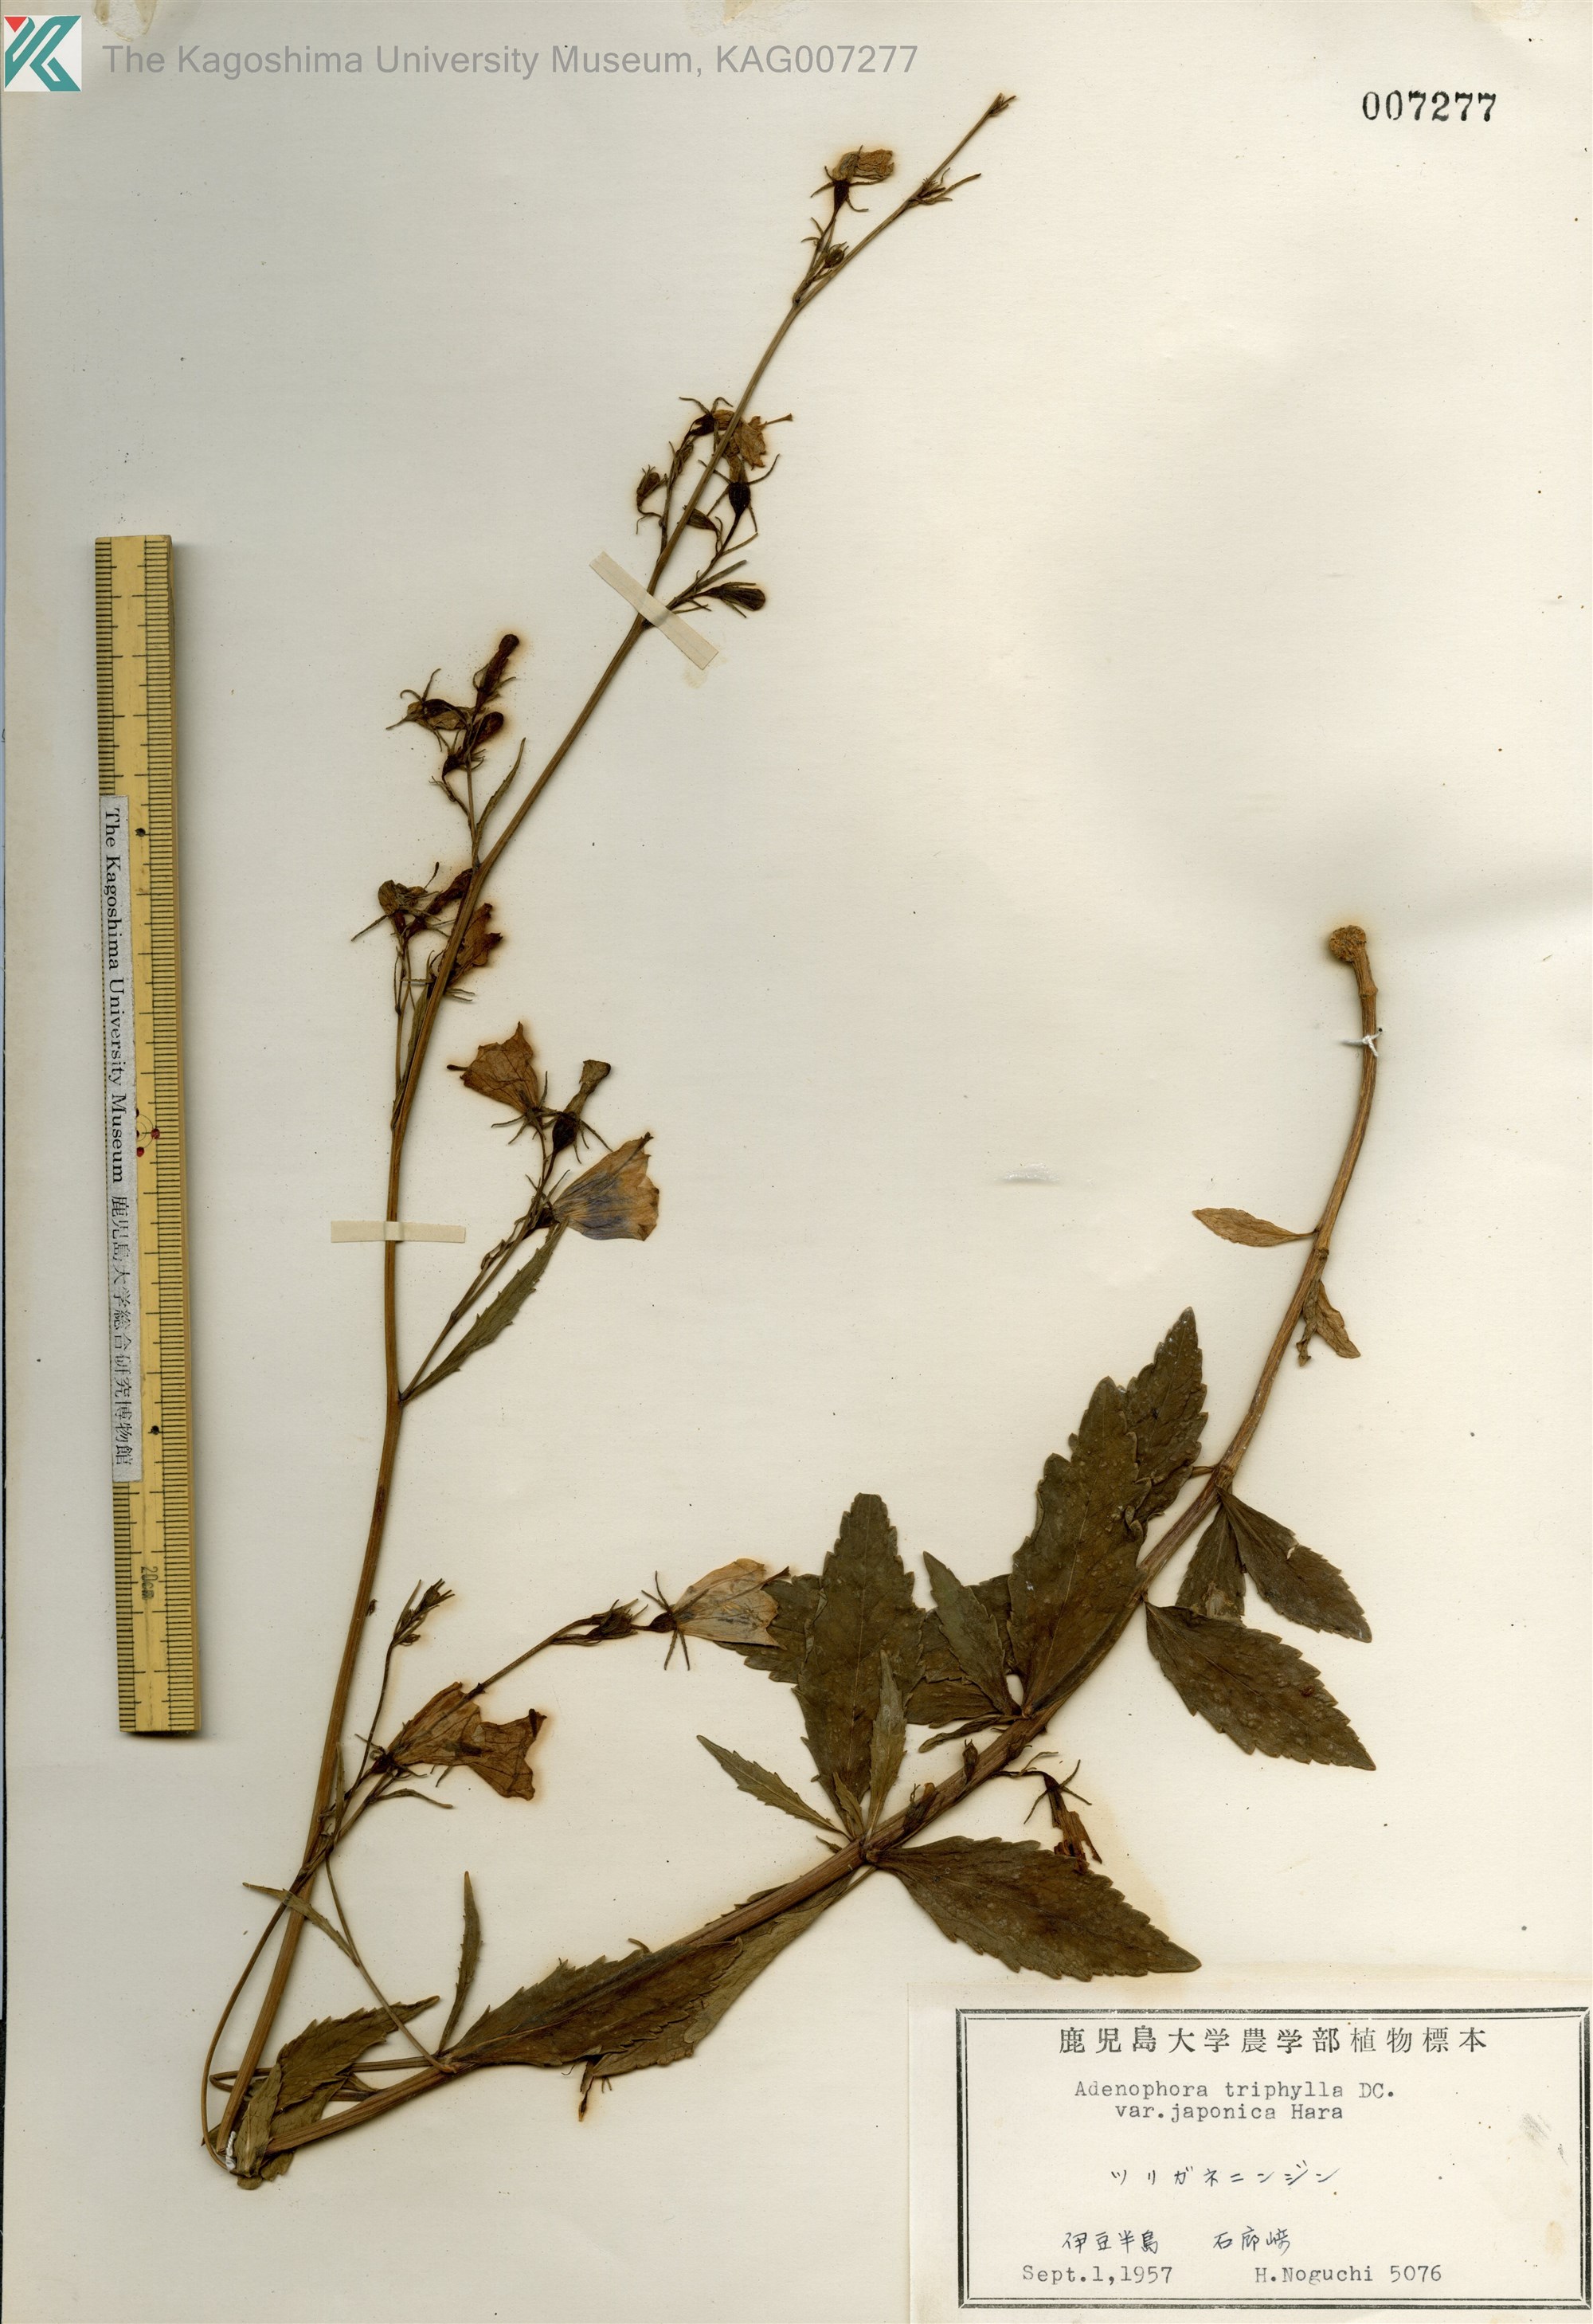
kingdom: Plantae
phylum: Tracheophyta
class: Magnoliopsida
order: Asterales
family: Campanulaceae
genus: Adenophora
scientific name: Adenophora triphylla
